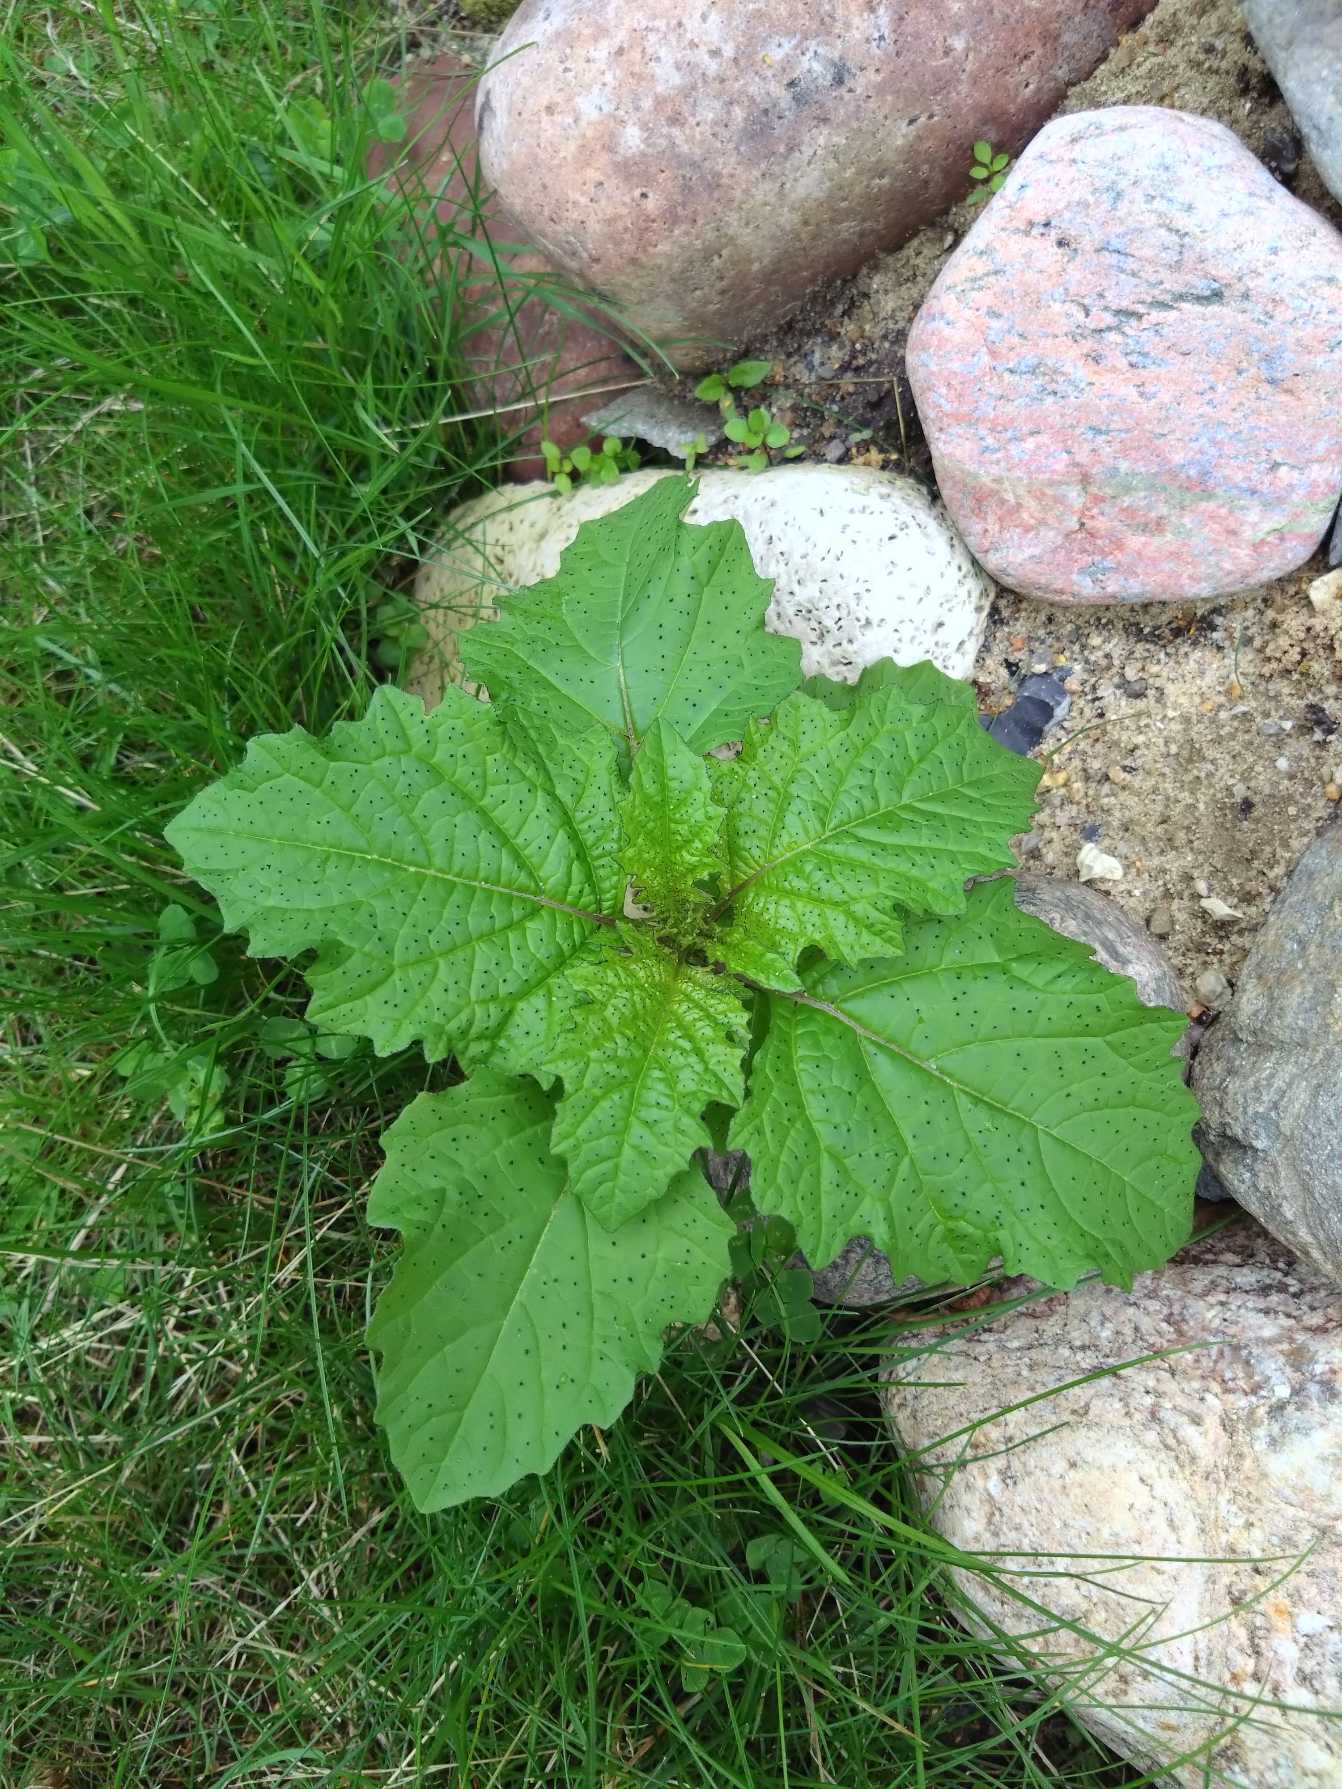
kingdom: Plantae
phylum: Tracheophyta
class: Magnoliopsida
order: Solanales
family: Solanaceae
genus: Nicandra
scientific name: Nicandra physalodes
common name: Kantbæger
